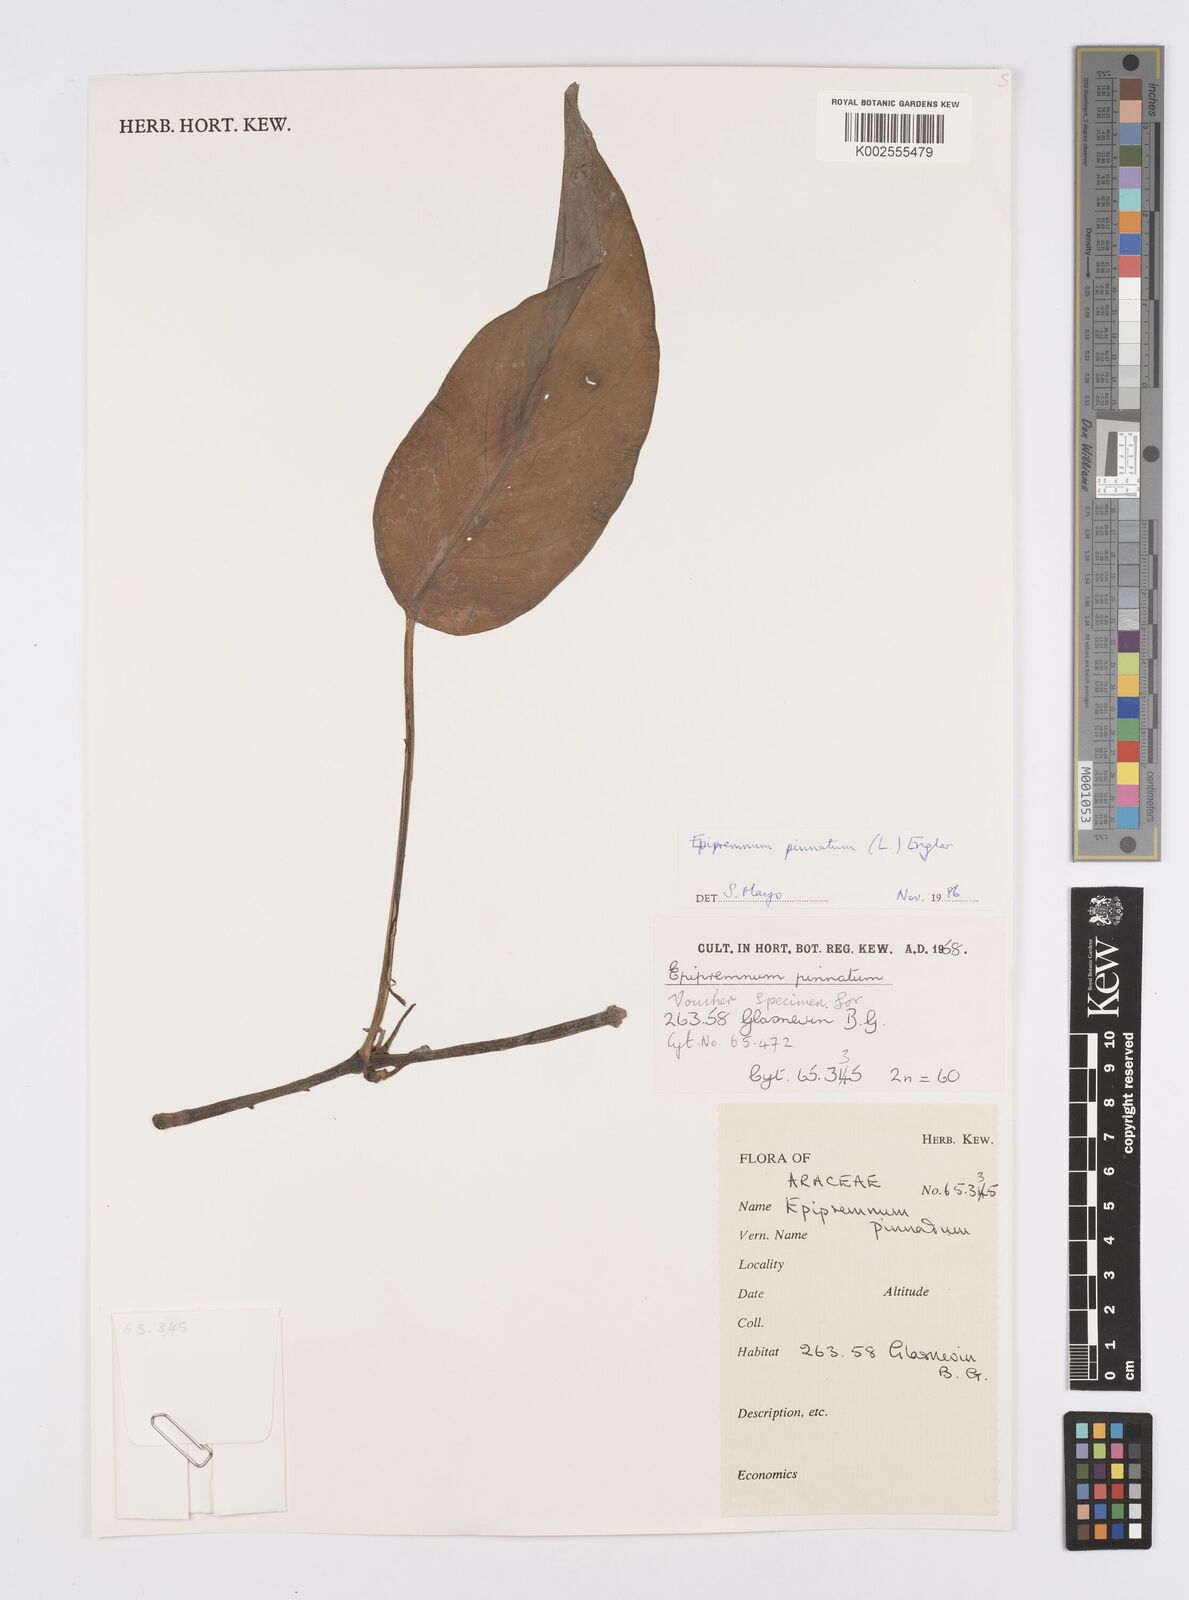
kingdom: Plantae
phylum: Tracheophyta
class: Liliopsida
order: Alismatales
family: Araceae
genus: Epipremnum
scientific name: Epipremnum pinnatum
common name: Centipede tongavine
